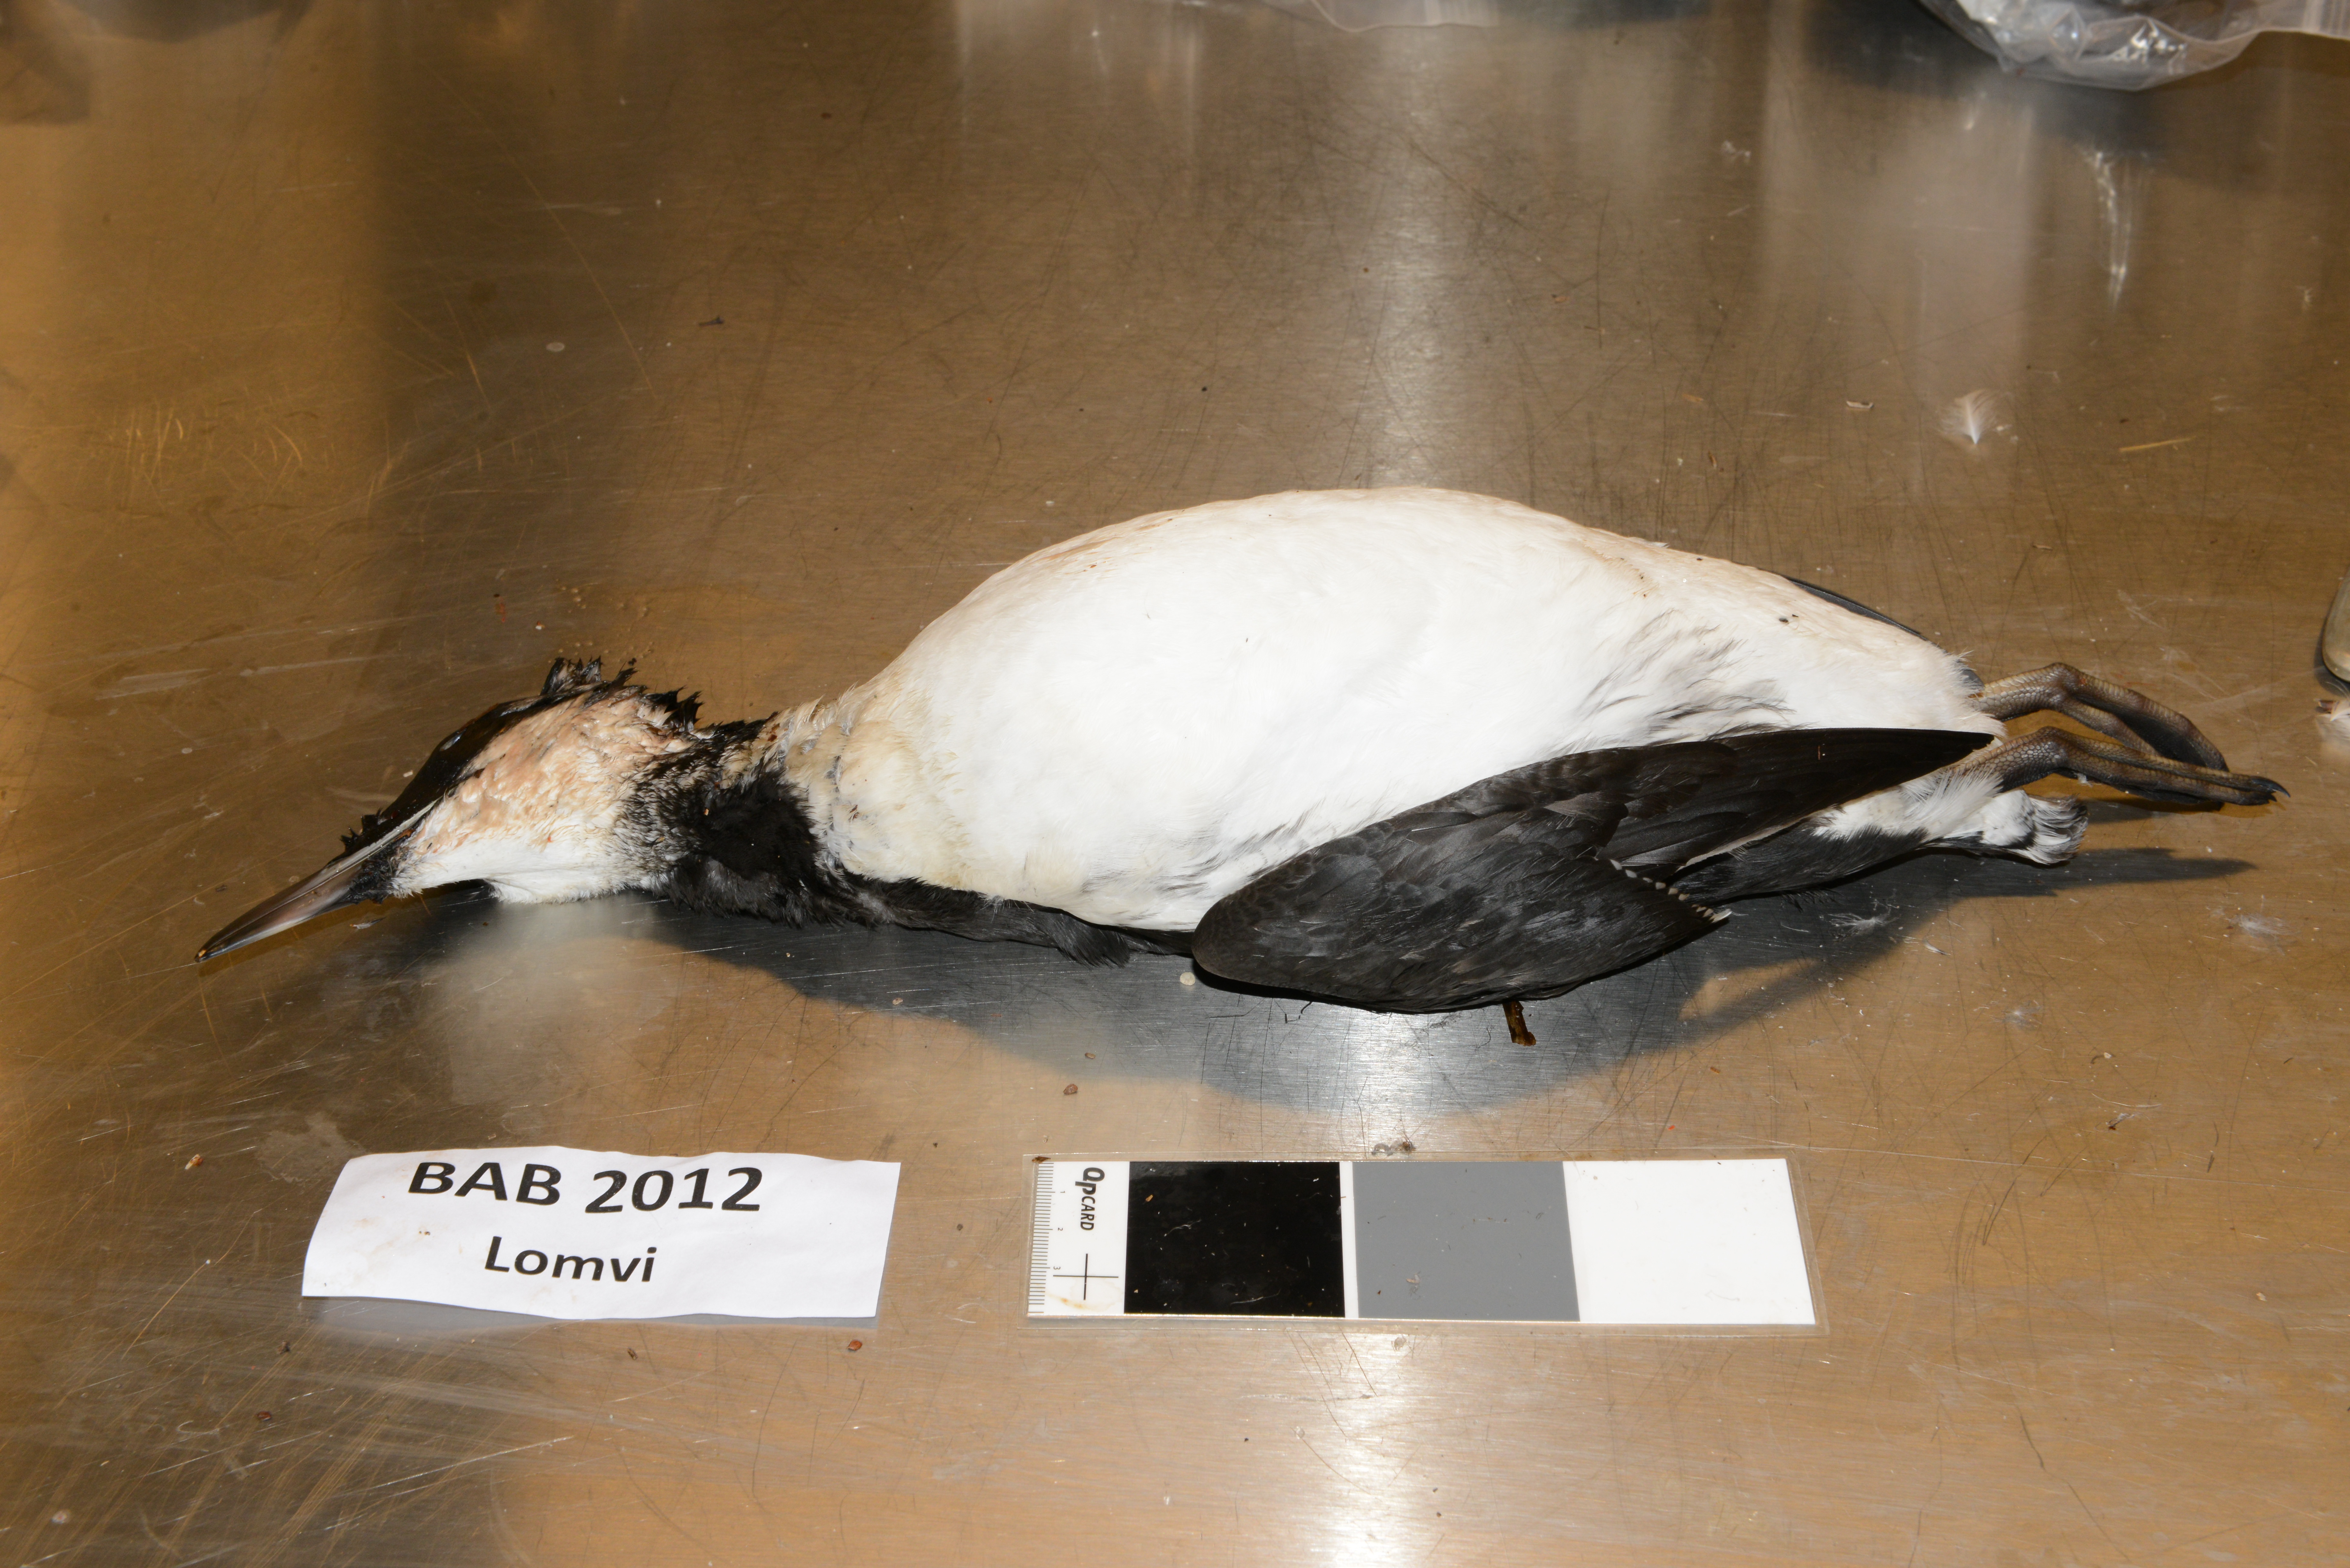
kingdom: Animalia
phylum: Chordata
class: Aves
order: Charadriiformes
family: Alcidae
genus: Uria
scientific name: Uria aalge
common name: Common murre
